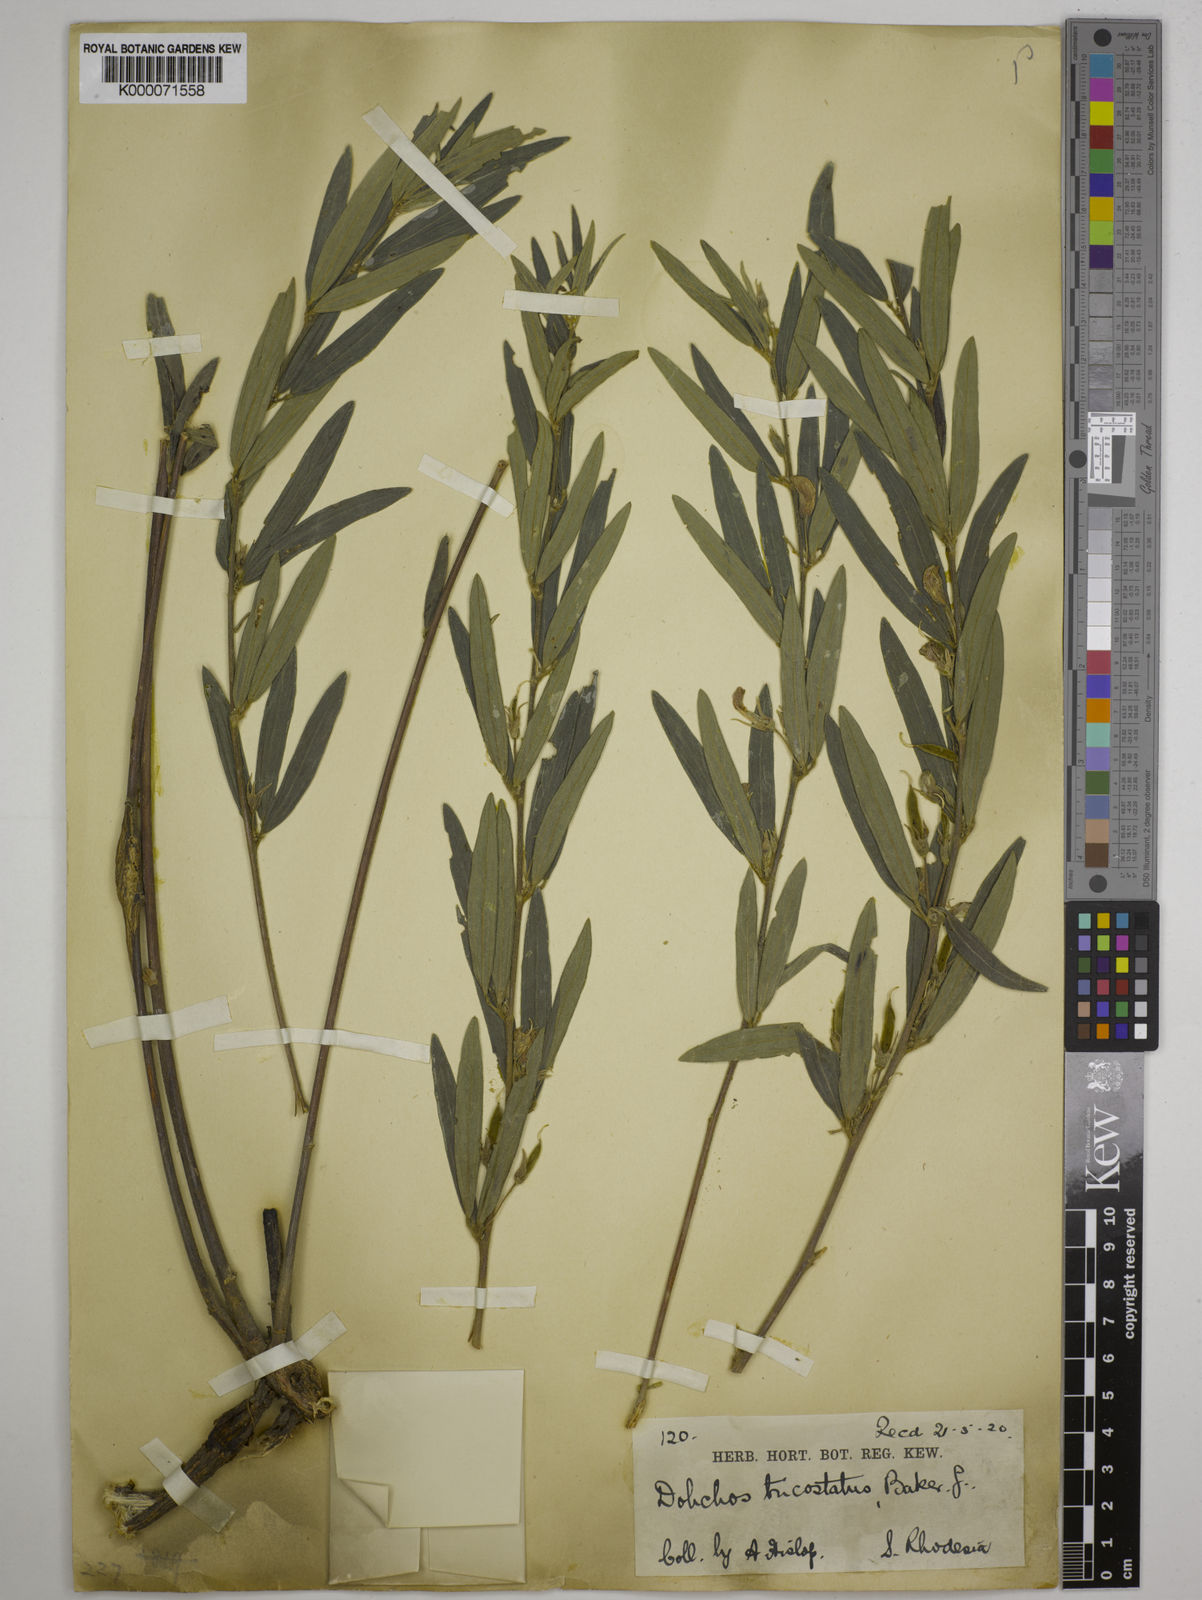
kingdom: Plantae
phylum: Tracheophyta
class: Magnoliopsida
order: Fabales
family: Fabaceae
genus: Dolichos
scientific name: Dolichos trinervatus
